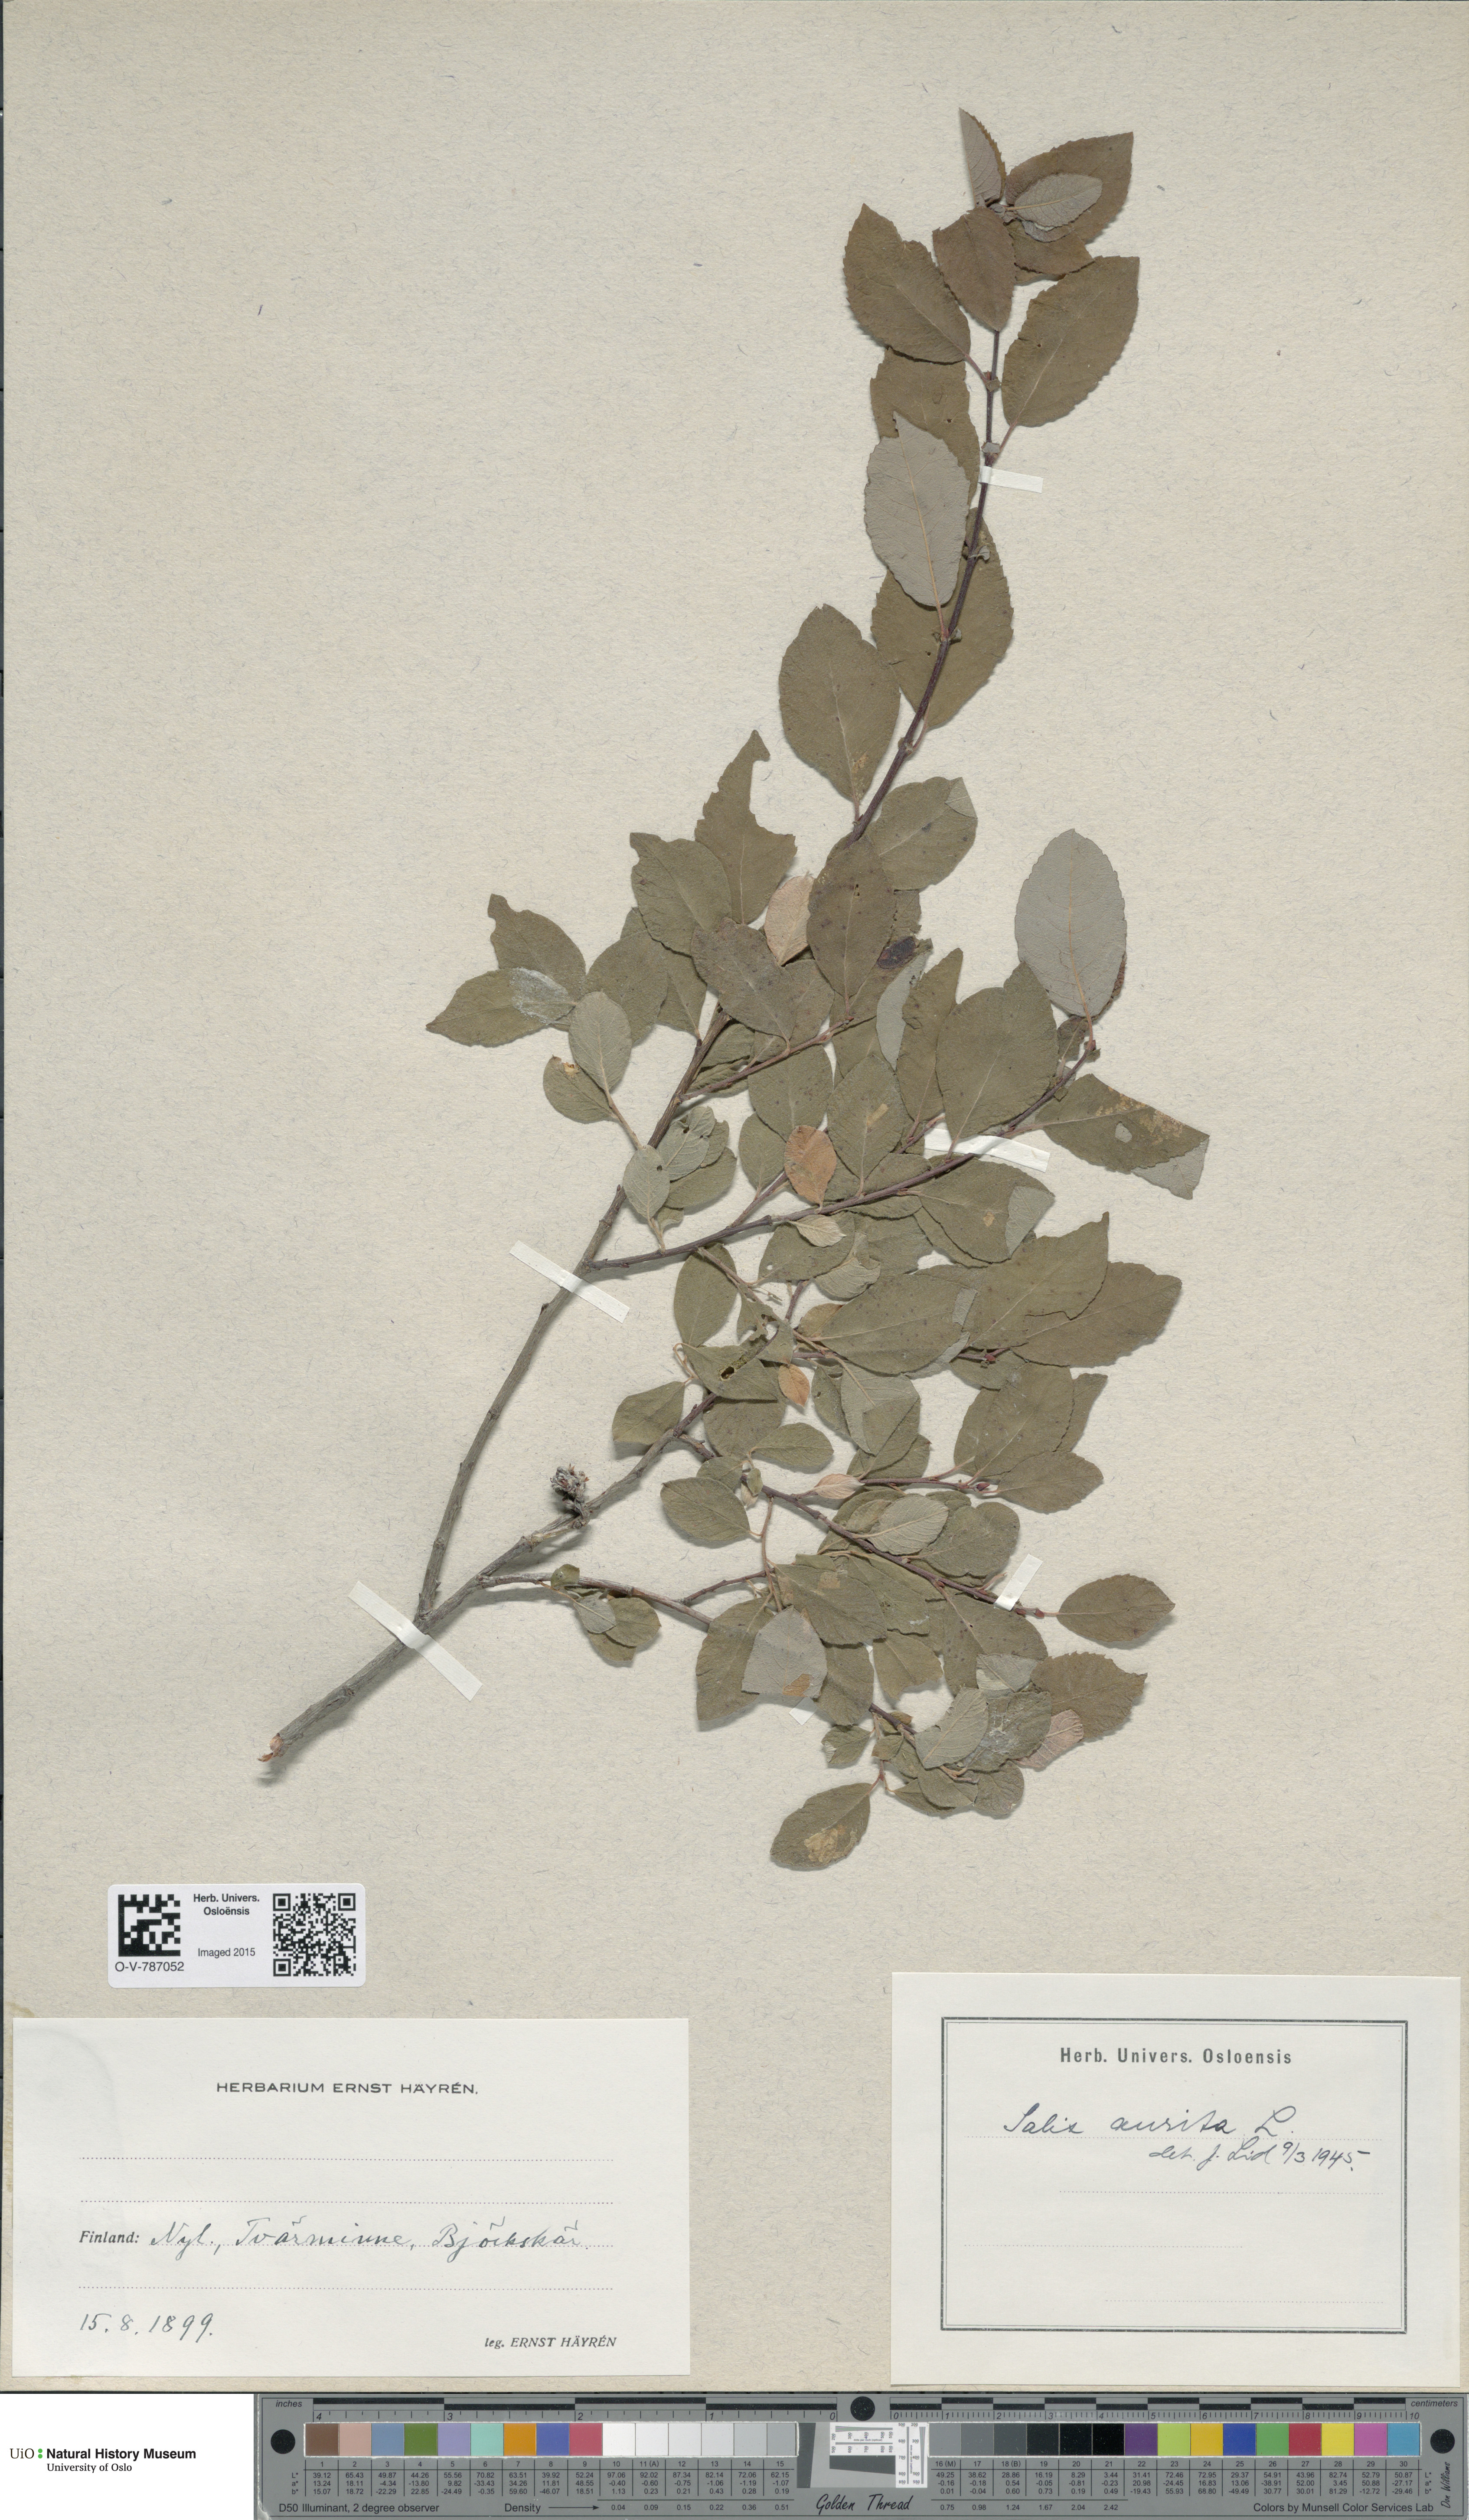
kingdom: Plantae
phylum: Tracheophyta
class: Magnoliopsida
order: Malpighiales
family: Salicaceae
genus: Salix
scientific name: Salix aurita
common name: Eared willow
